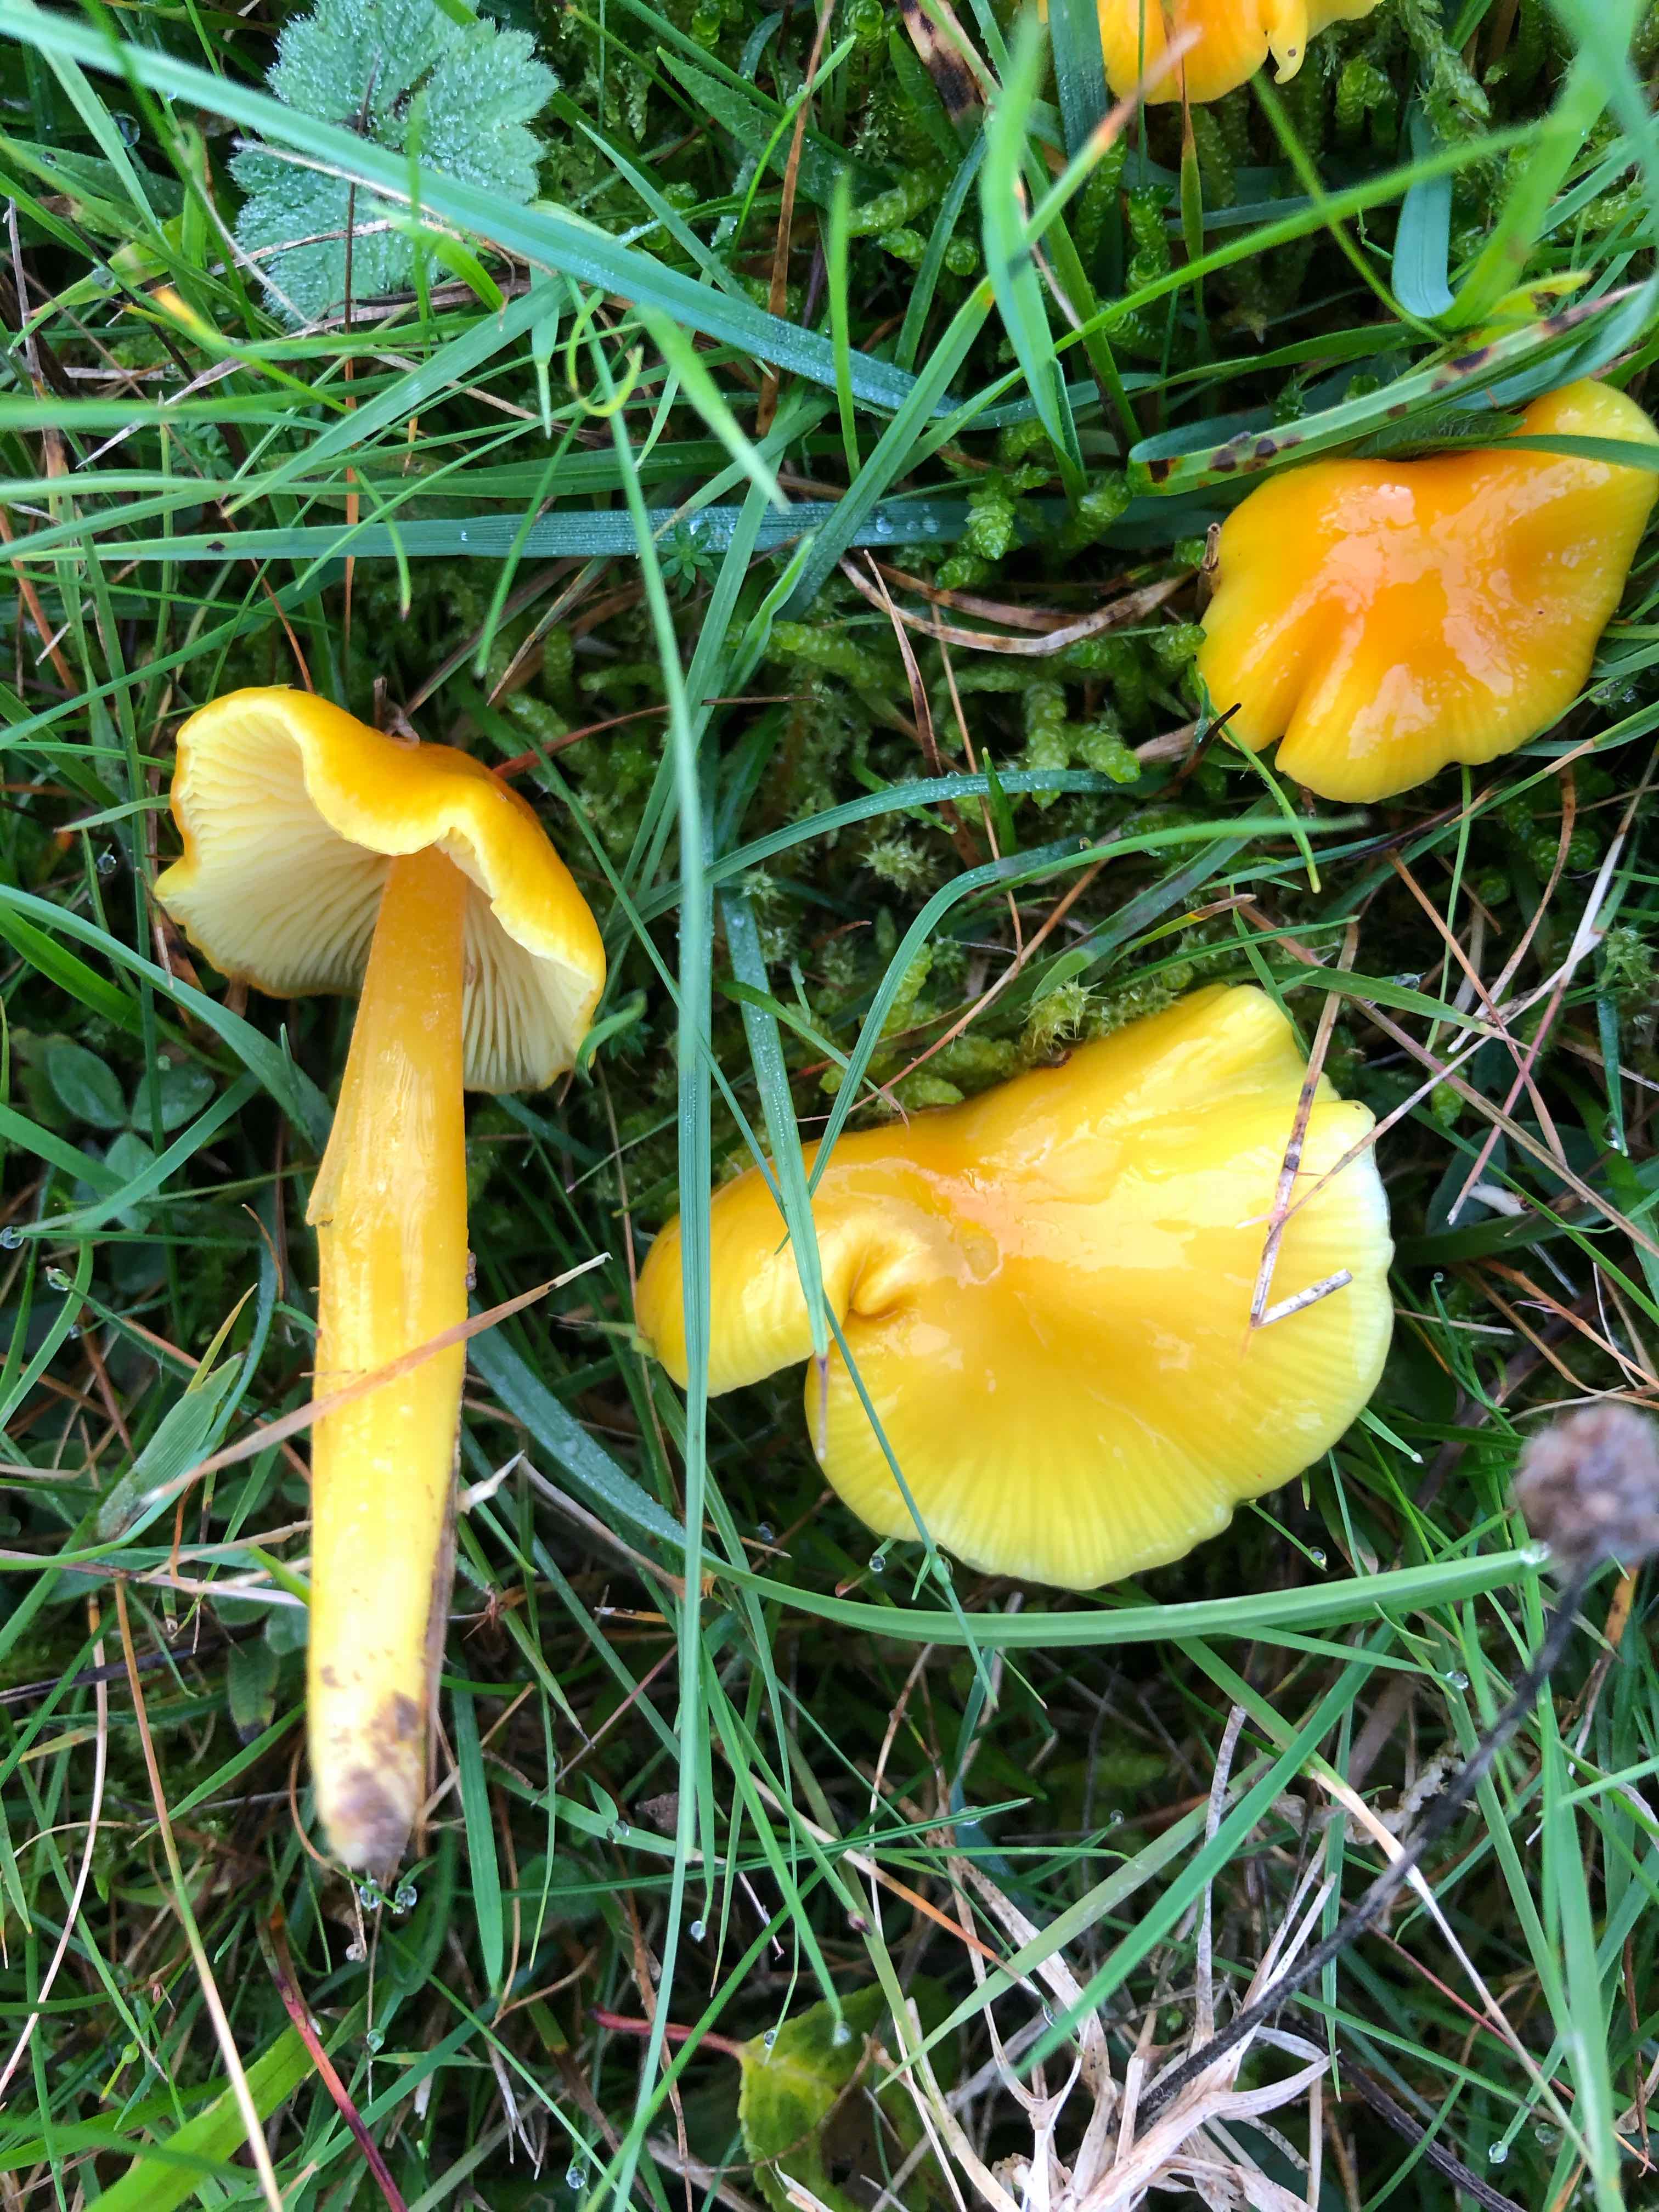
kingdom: Fungi
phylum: Basidiomycota
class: Agaricomycetes
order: Agaricales
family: Hygrophoraceae
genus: Hygrocybe
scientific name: Hygrocybe chlorophana
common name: gul vokshat
